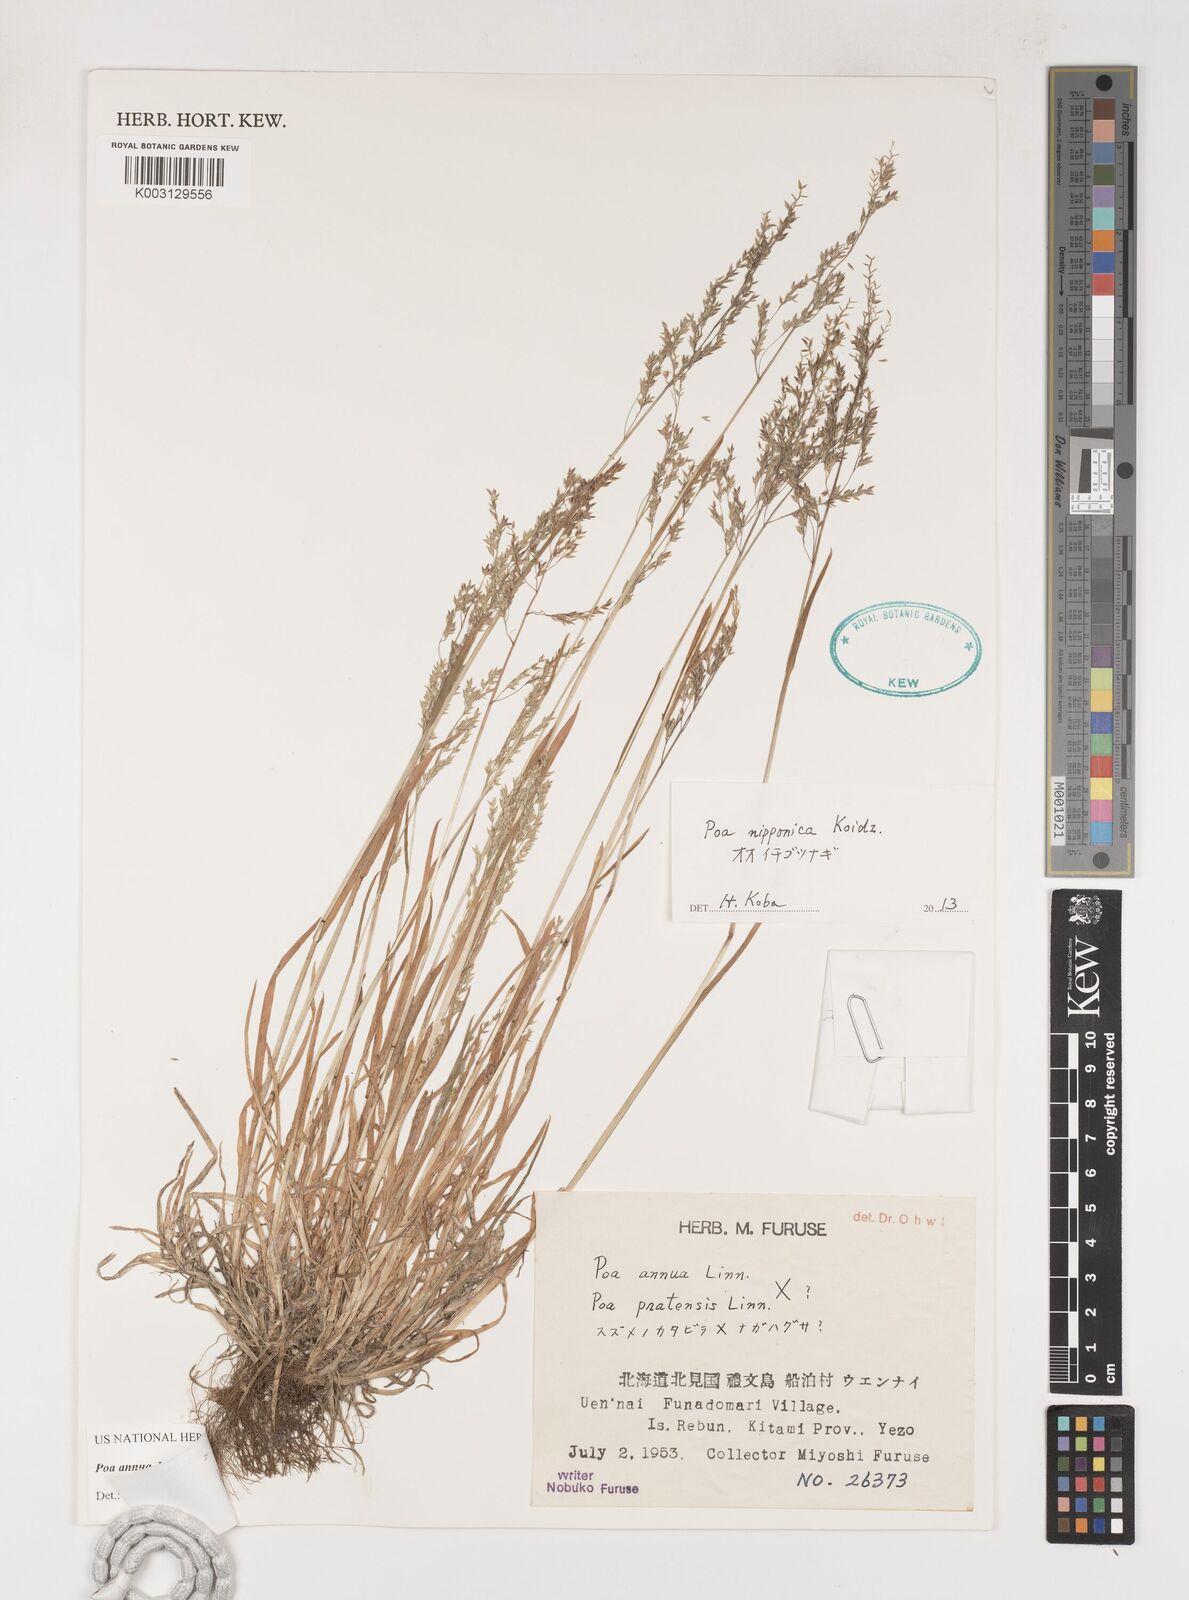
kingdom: Plantae
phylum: Tracheophyta
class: Liliopsida
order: Poales
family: Poaceae
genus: Poa
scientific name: Poa annua
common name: Annual bluegrass
